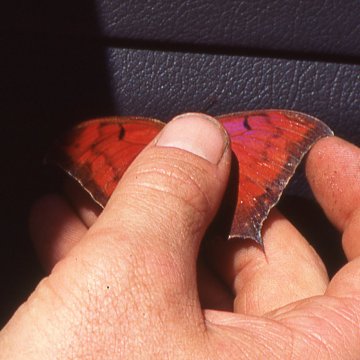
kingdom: Animalia
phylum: Arthropoda
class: Insecta
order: Lepidoptera
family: Nymphalidae
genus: Anaea
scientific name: Anaea aidea
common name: Tropical Leafwing
